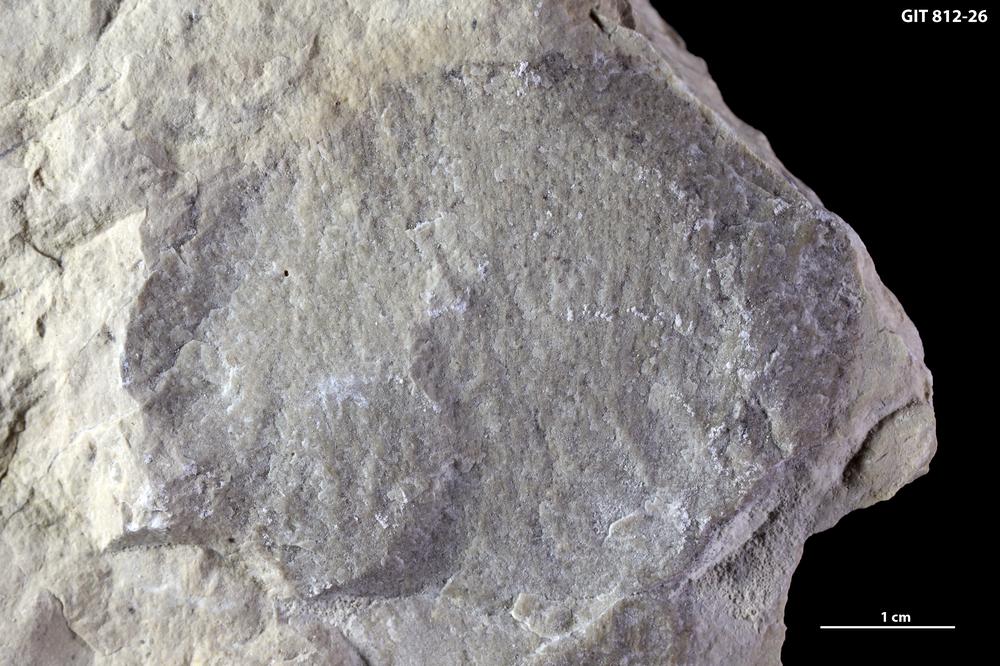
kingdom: Animalia
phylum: Porifera
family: Anthaspidellidae
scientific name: Anthaspidellidae
